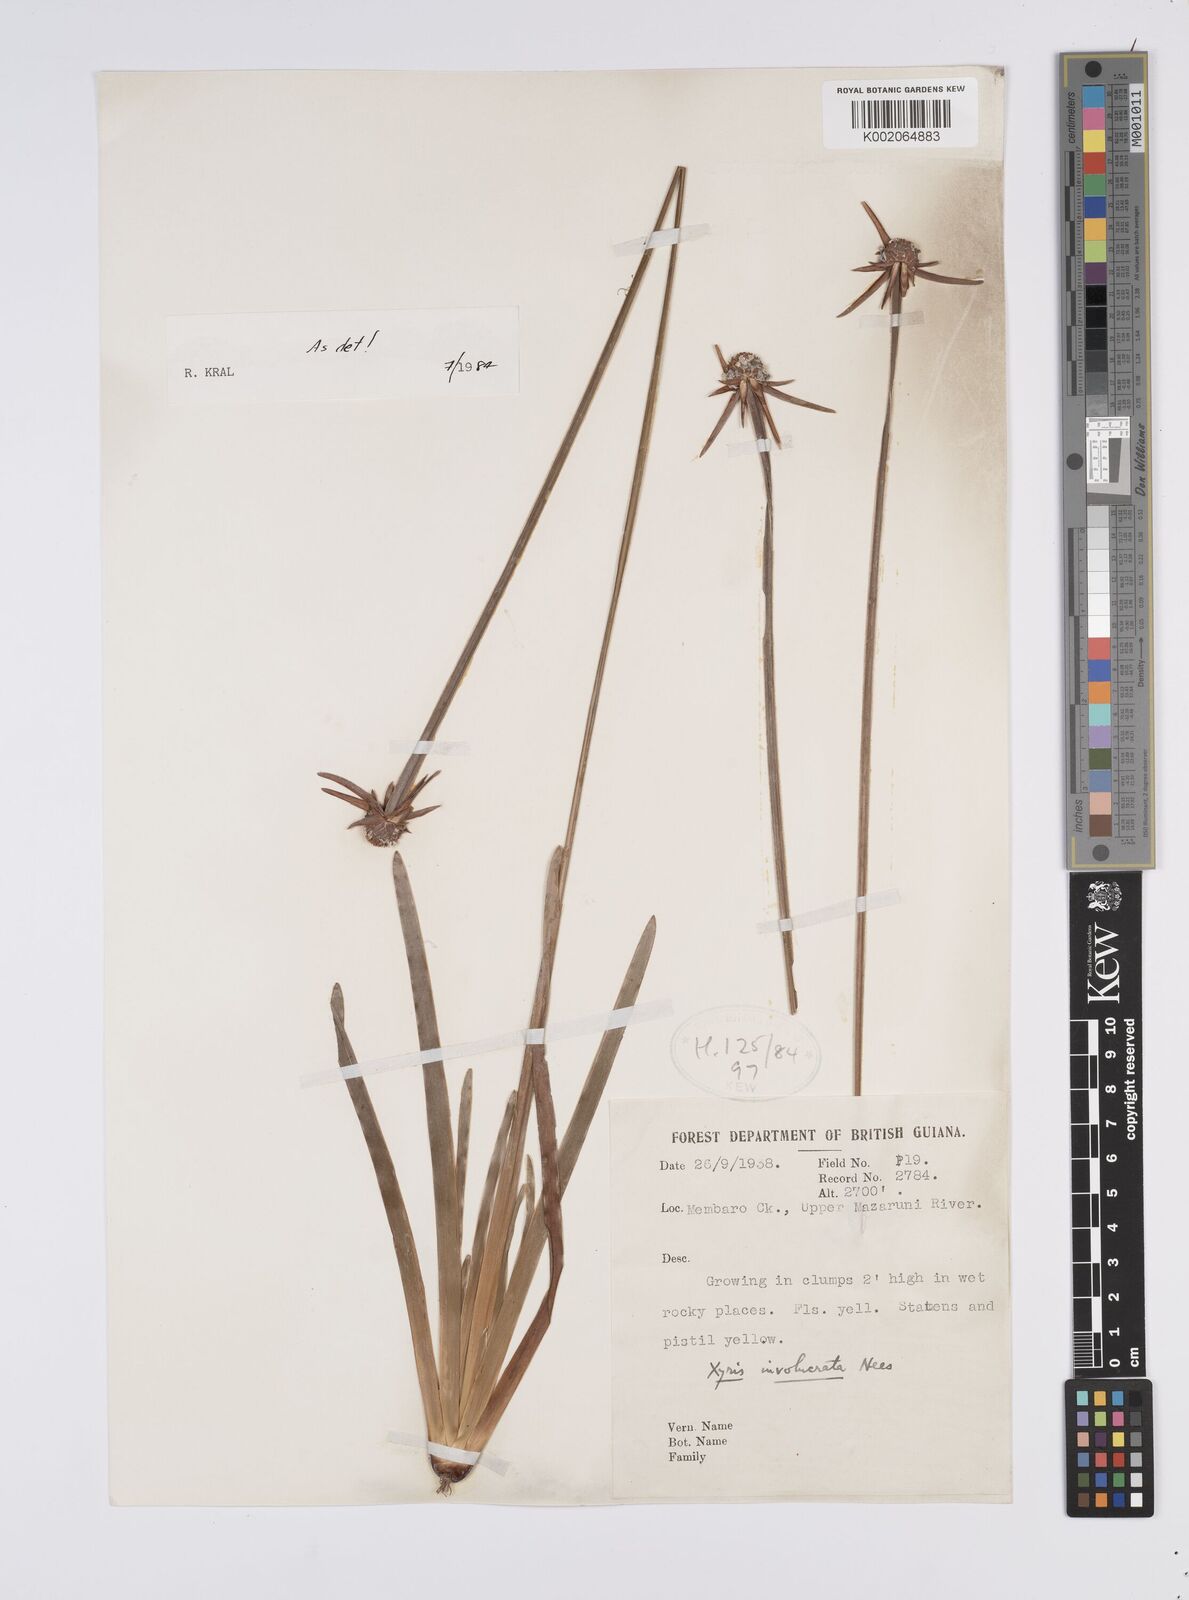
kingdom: Plantae
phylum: Tracheophyta
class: Liliopsida
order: Poales
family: Xyridaceae
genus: Xyris
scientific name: Xyris involucrata
